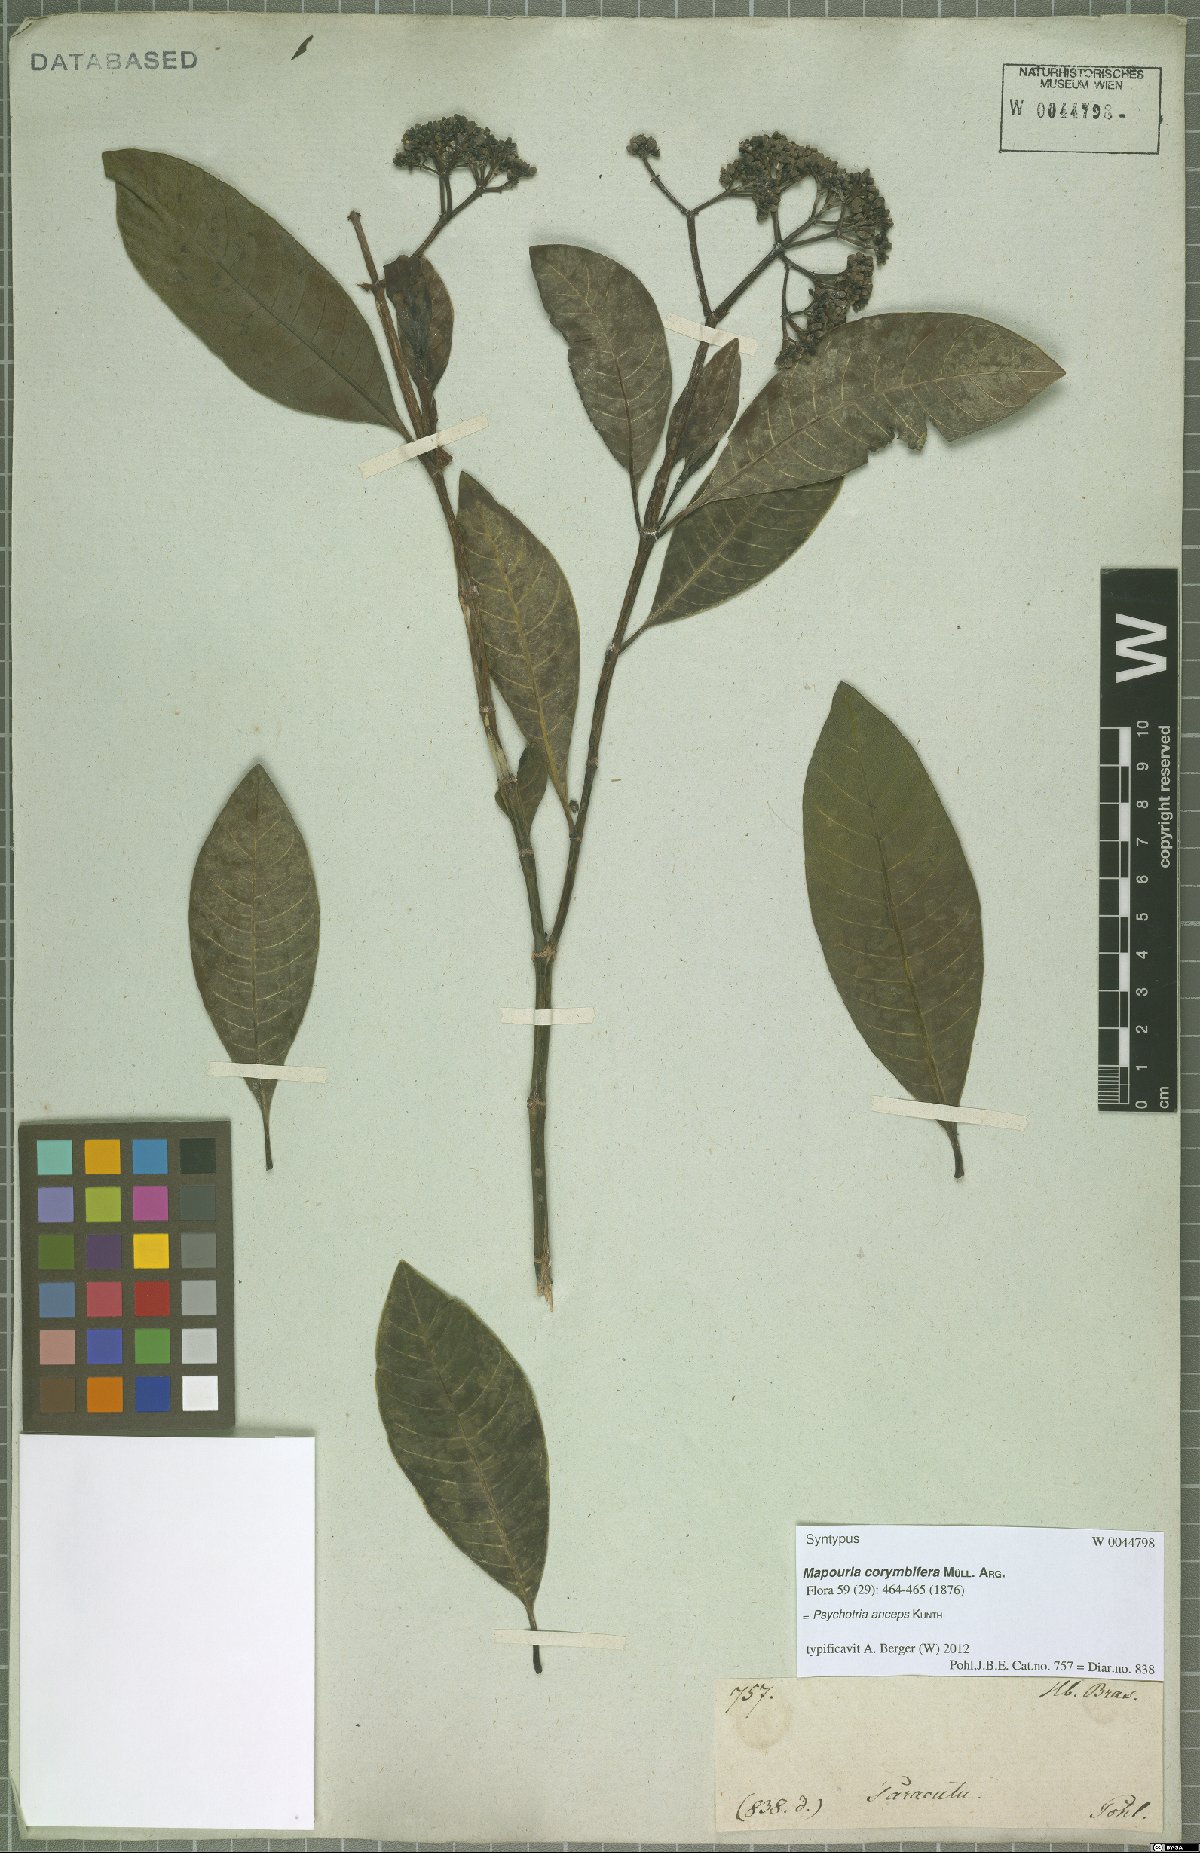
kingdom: Plantae
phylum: Tracheophyta
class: Magnoliopsida
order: Gentianales
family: Rubiaceae
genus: Psychotria
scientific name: Psychotria anceps
